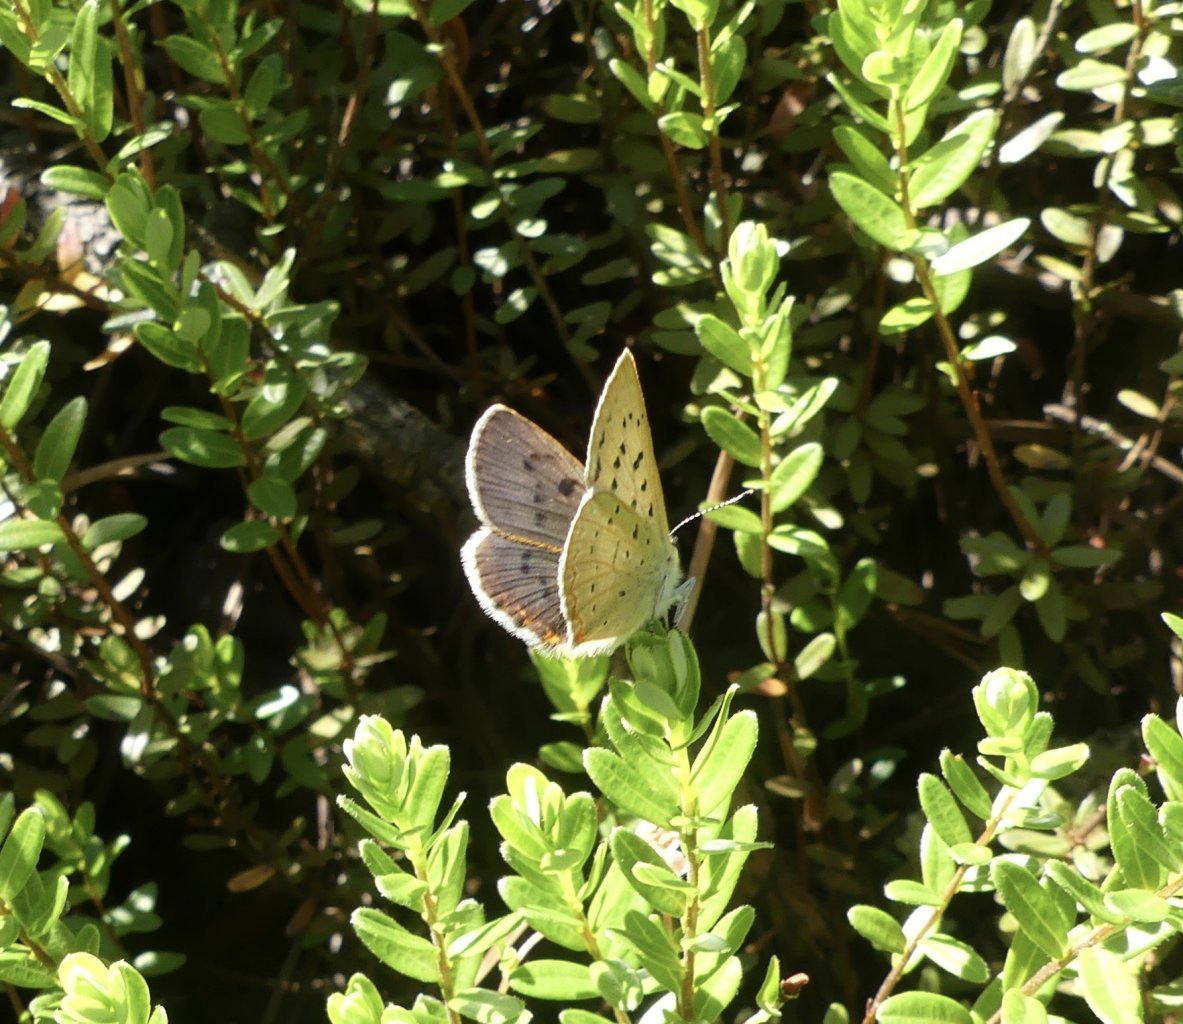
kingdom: Animalia
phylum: Arthropoda
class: Insecta
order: Lepidoptera
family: Sesiidae
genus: Sesia
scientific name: Sesia Lycaena epixanthe
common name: Bog Copper
